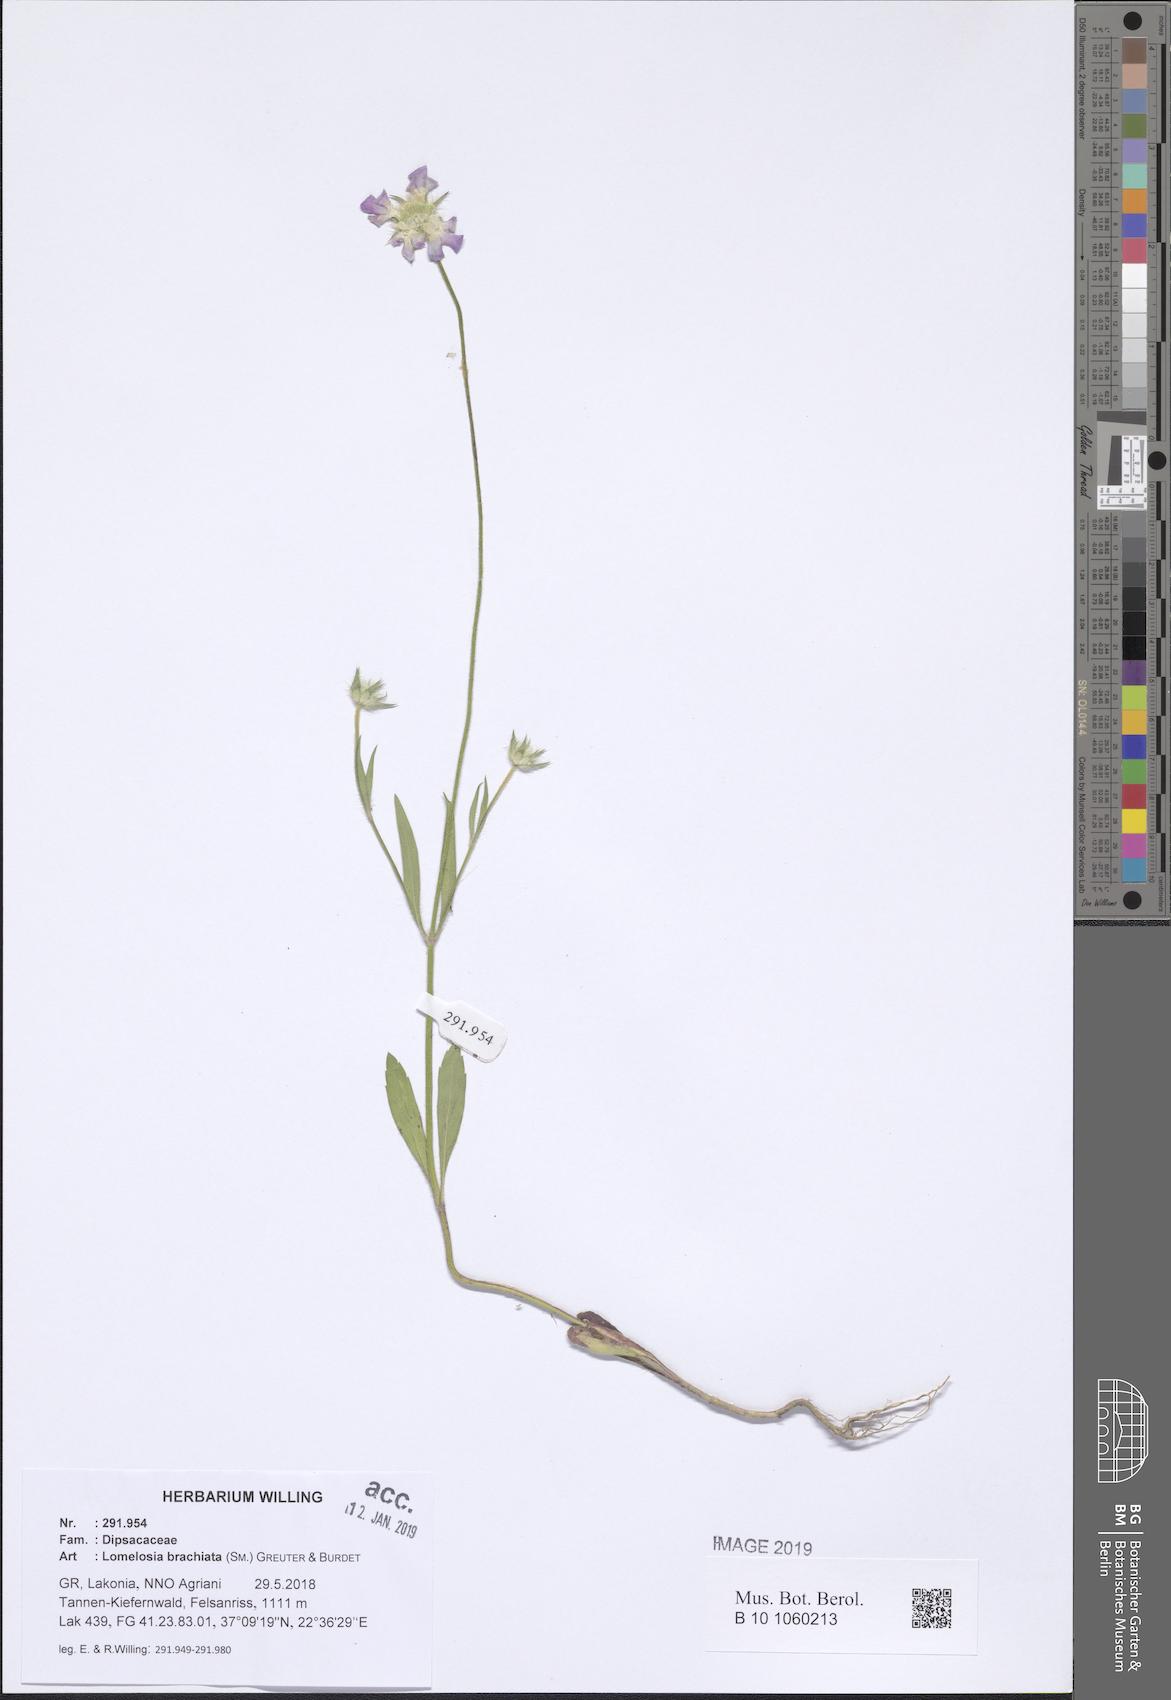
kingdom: Plantae
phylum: Tracheophyta
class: Magnoliopsida
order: Dipsacales
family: Caprifoliaceae
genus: Lomelosia
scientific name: Lomelosia brachiata
